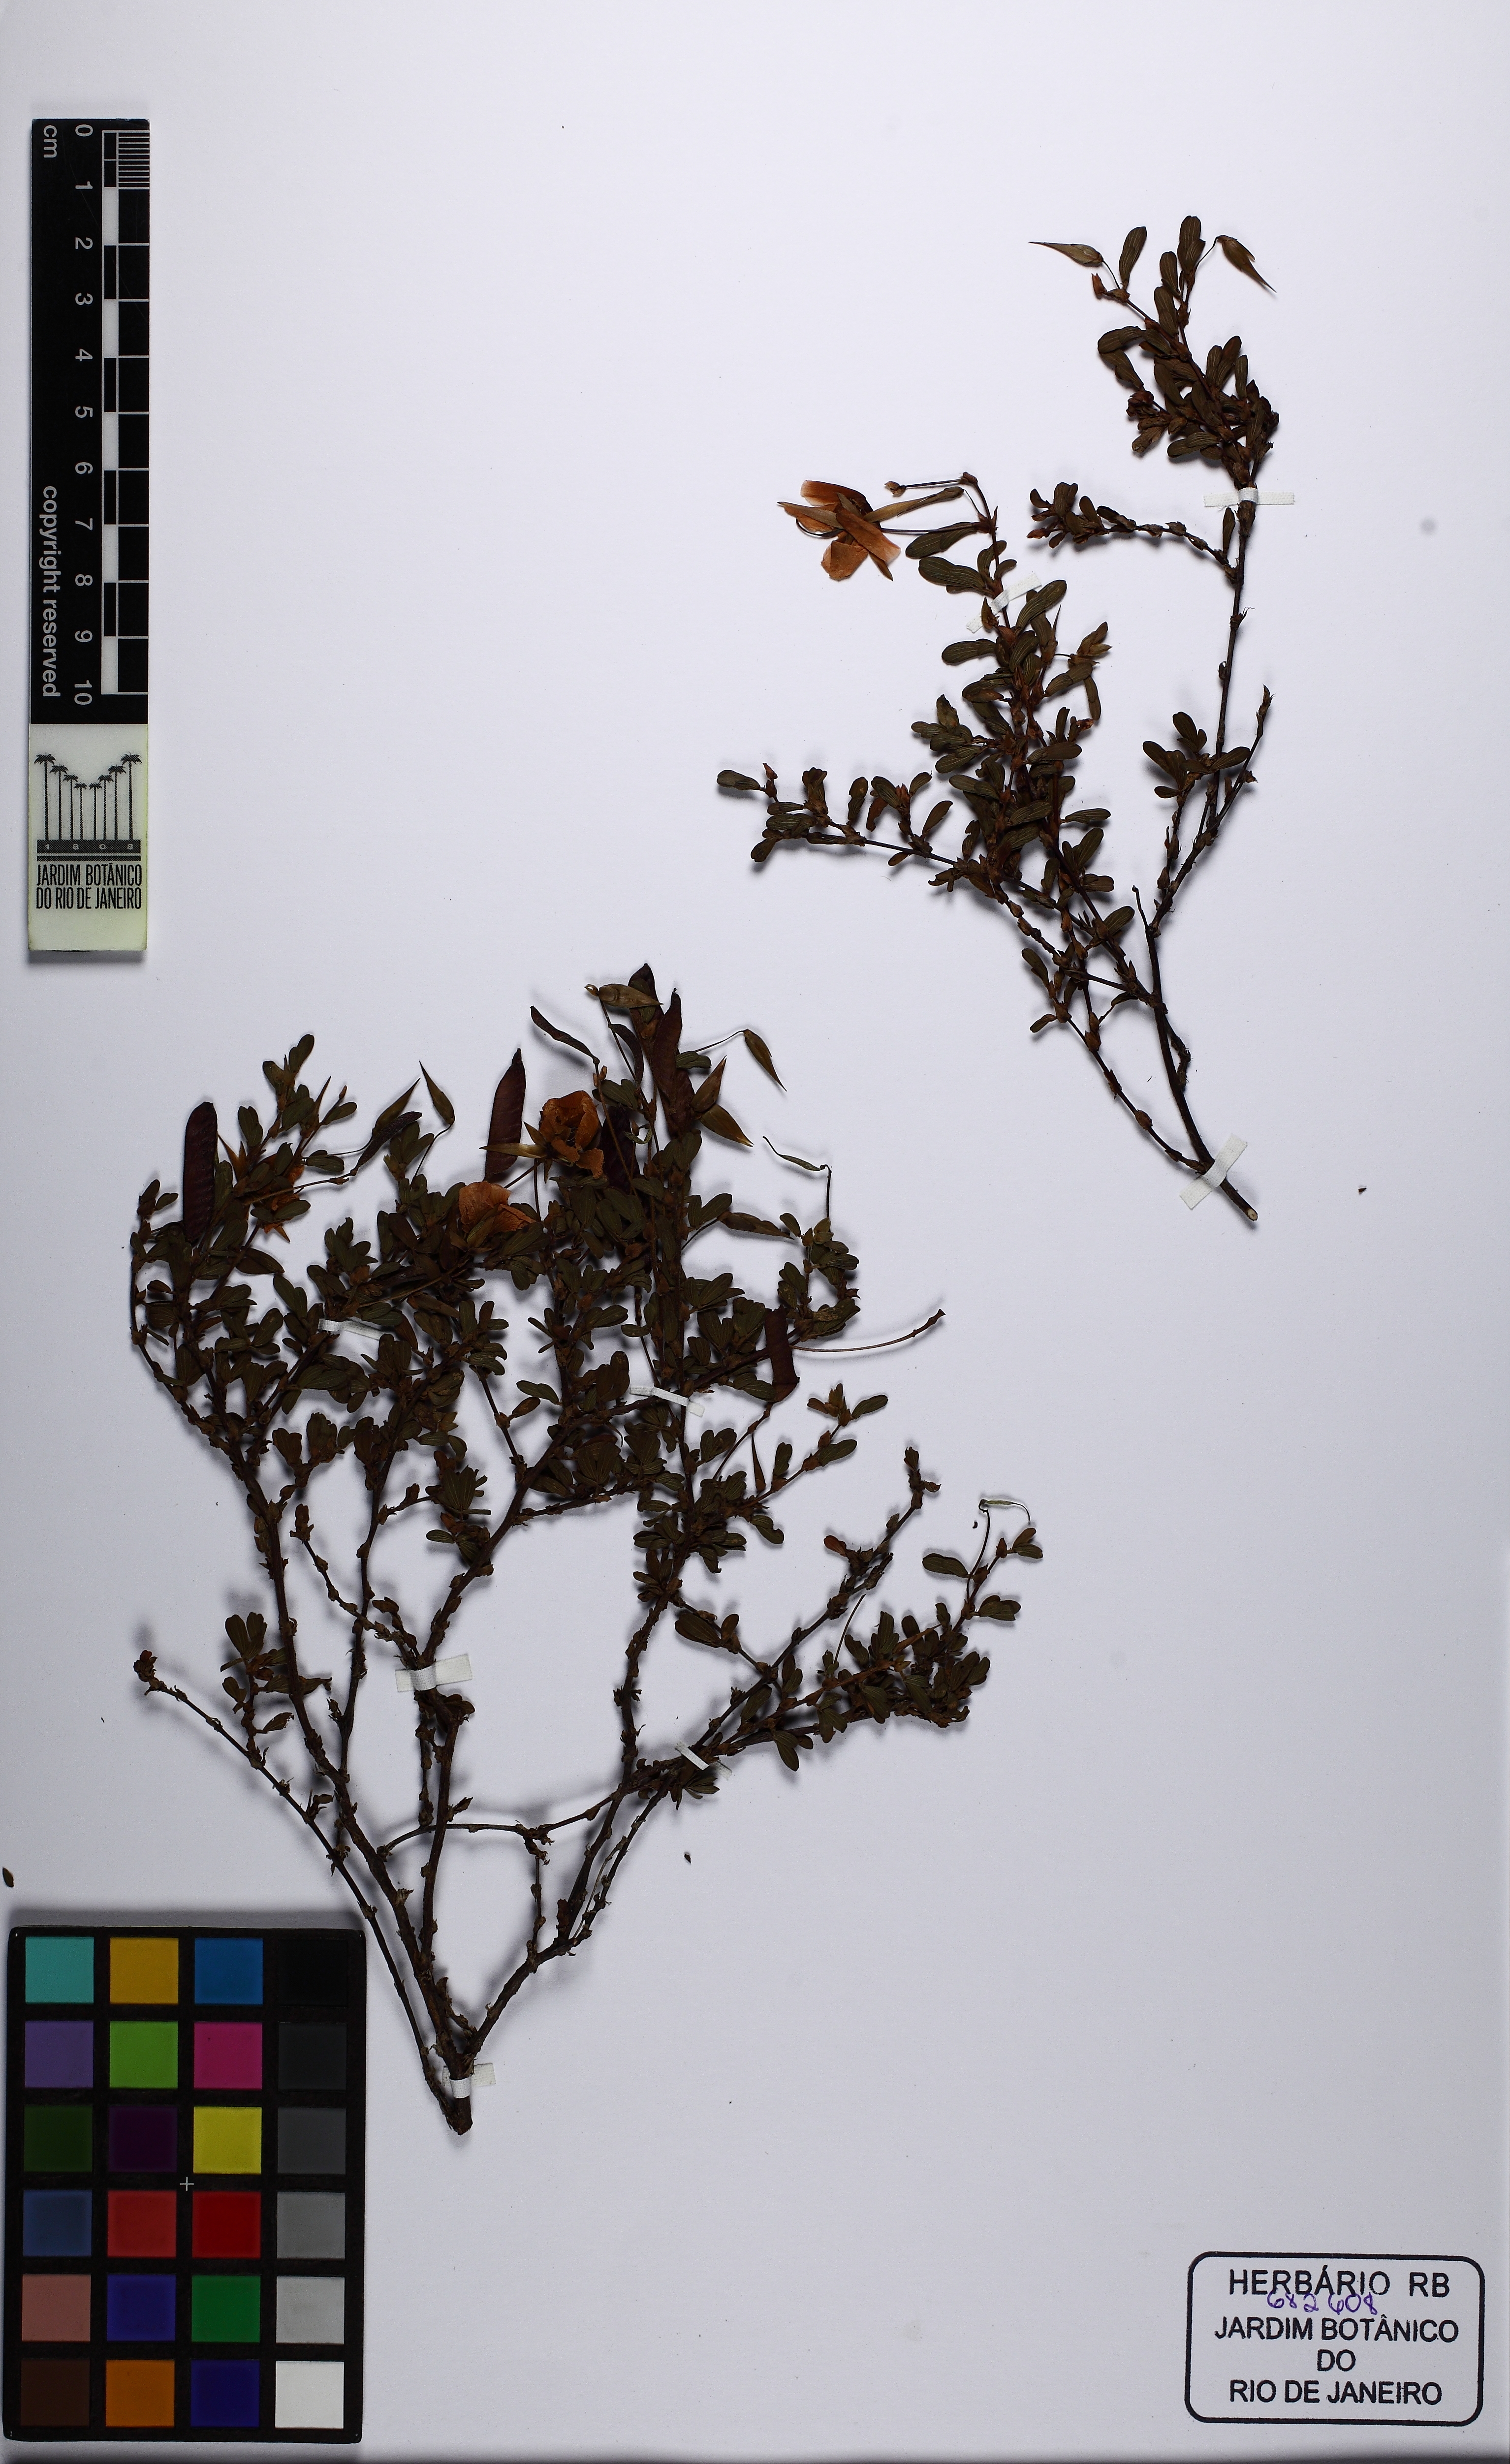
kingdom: Plantae
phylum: Tracheophyta
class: Magnoliopsida
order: Fabales
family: Fabaceae
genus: Chamaecrista
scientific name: Chamaecrista
